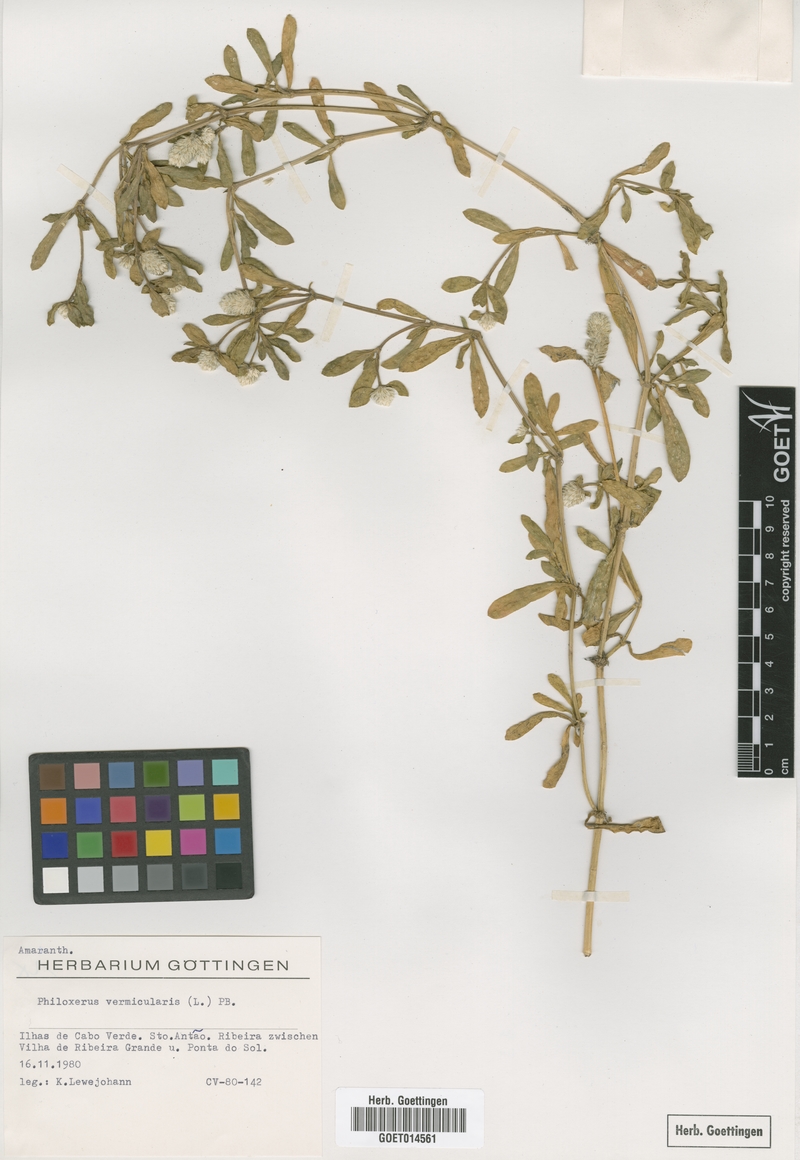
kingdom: Plantae
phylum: Tracheophyta
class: Magnoliopsida
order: Caryophyllales
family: Amaranthaceae
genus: Gomphrena
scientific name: Gomphrena
